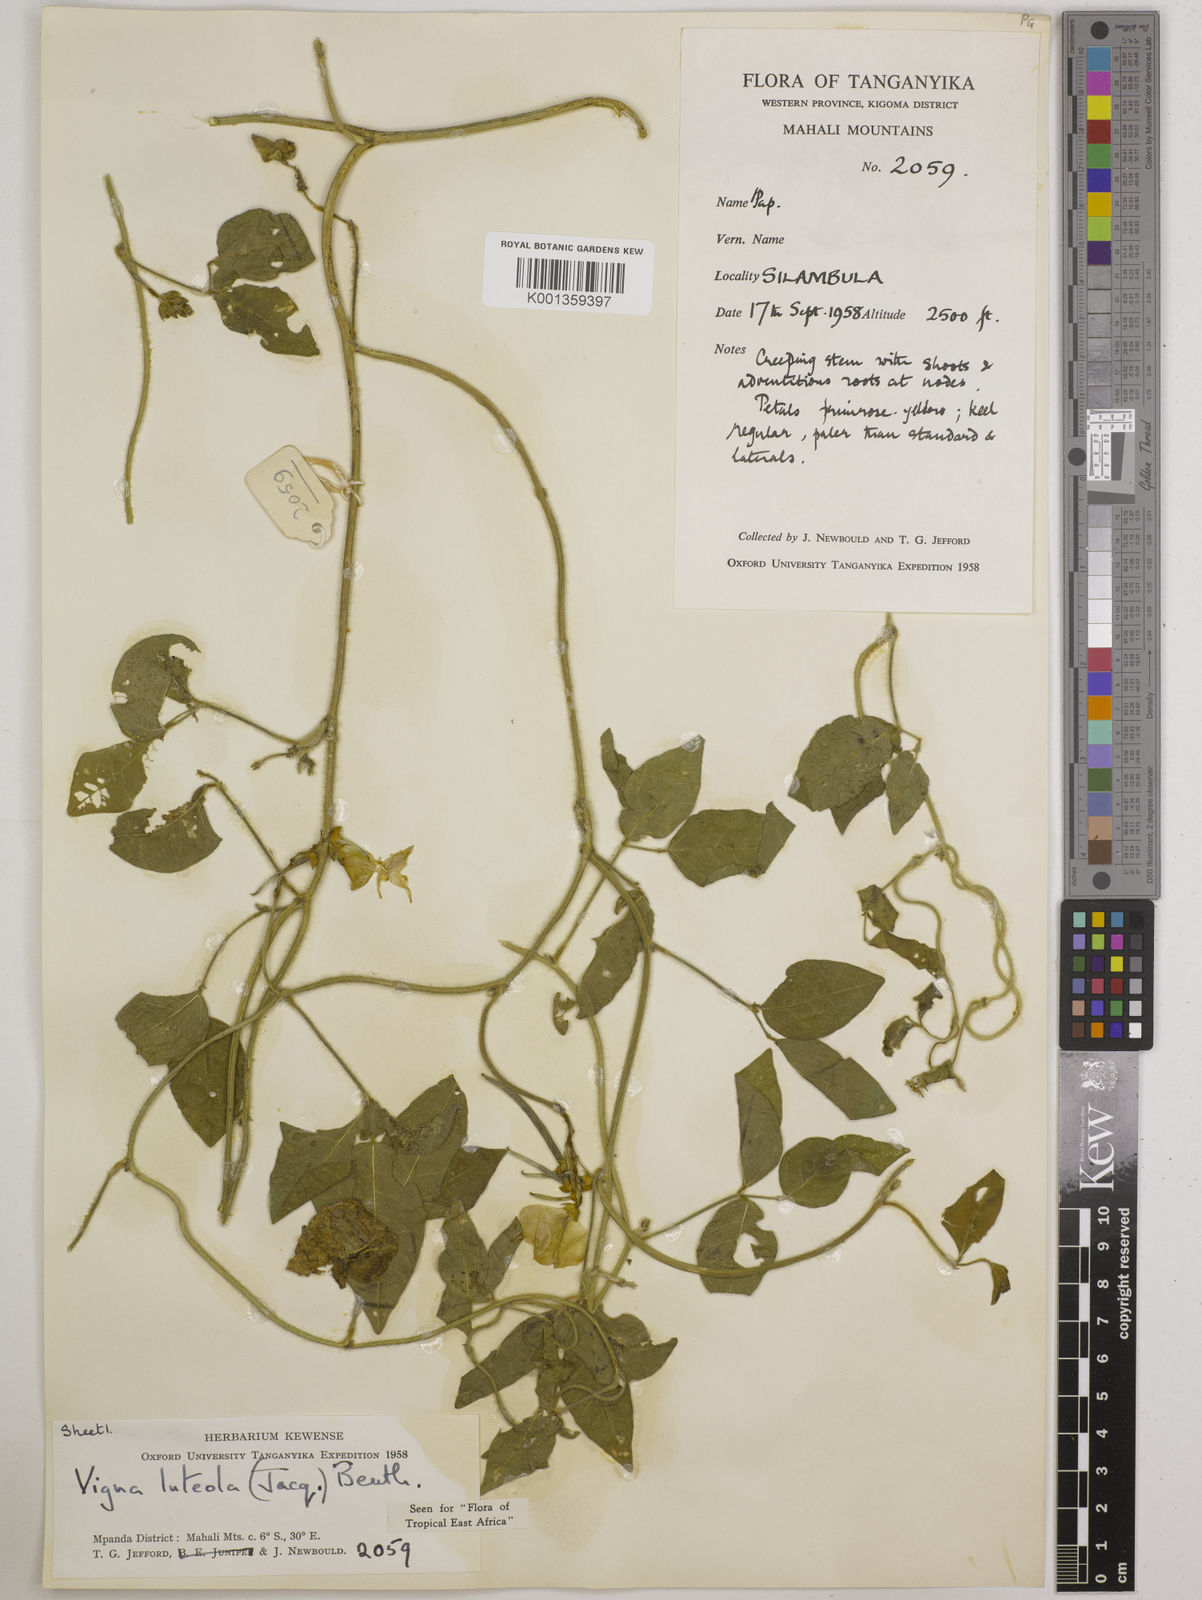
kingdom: Plantae
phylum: Tracheophyta
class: Magnoliopsida
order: Fabales
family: Fabaceae
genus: Vigna
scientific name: Vigna luteola
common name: Hairypod cowpea
